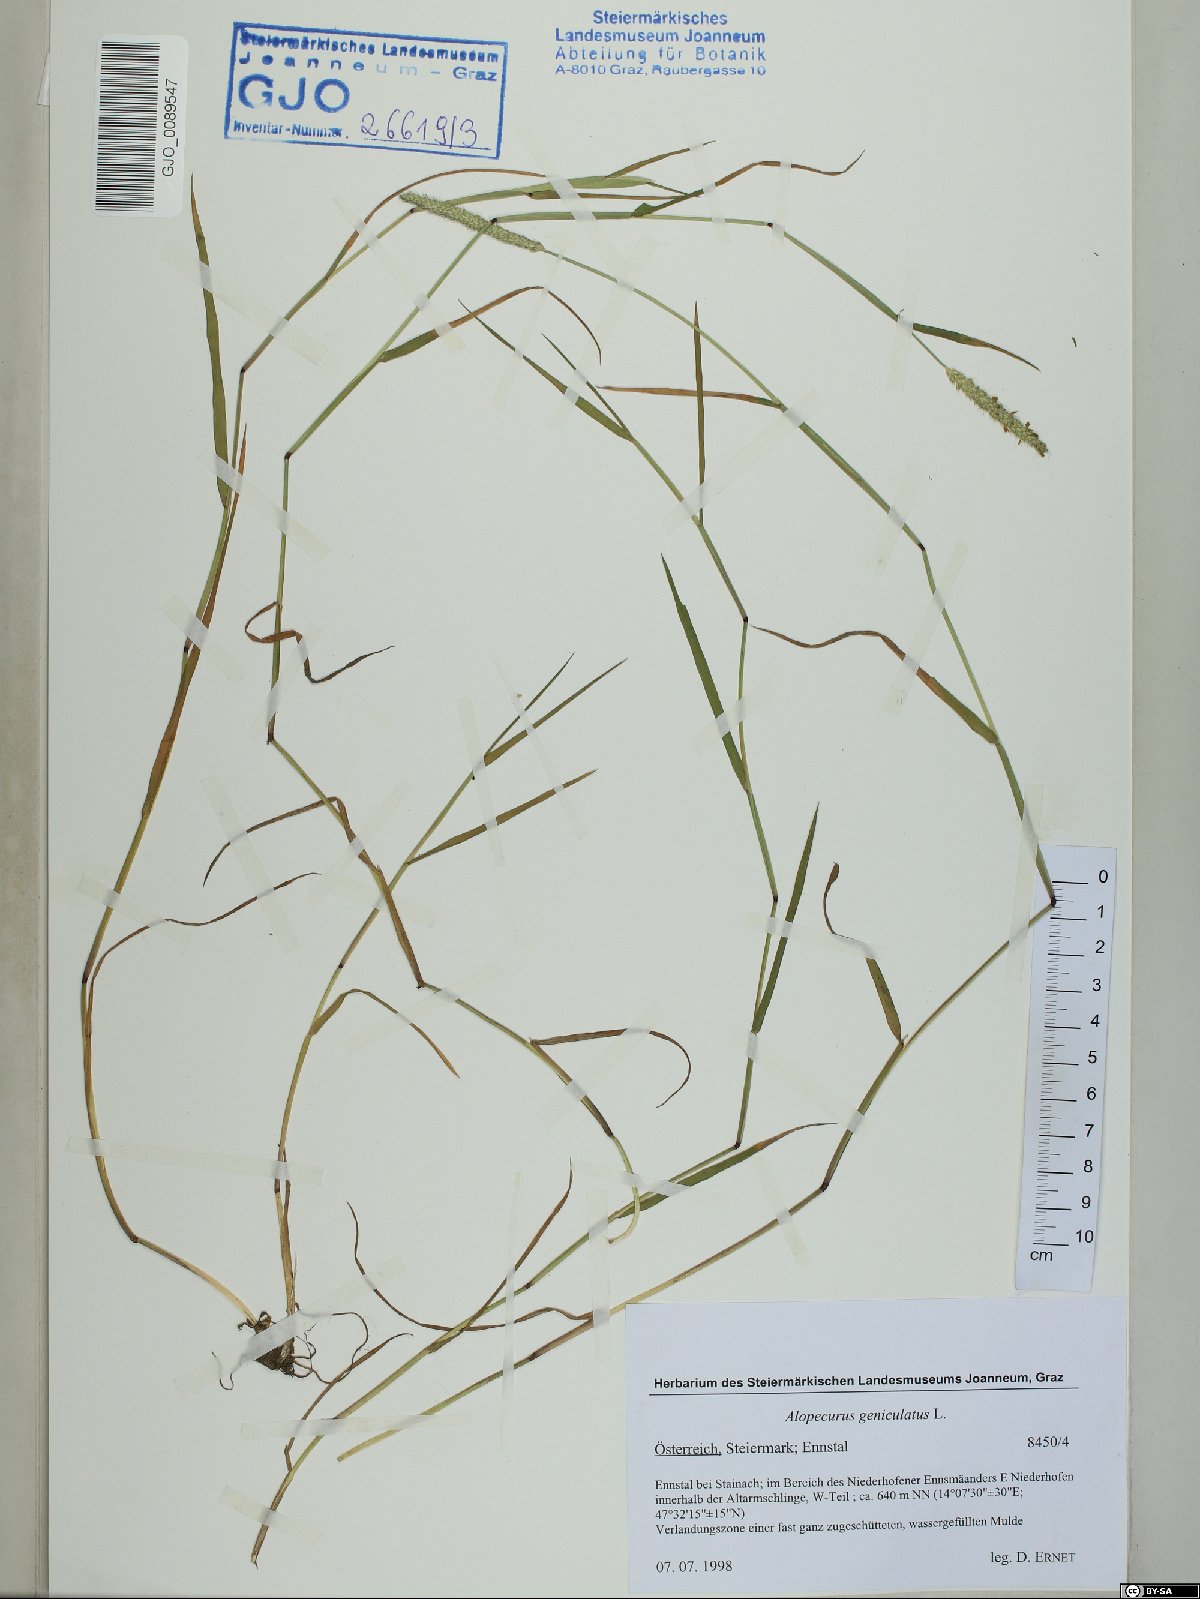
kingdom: Plantae
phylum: Tracheophyta
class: Liliopsida
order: Poales
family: Poaceae
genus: Alopecurus
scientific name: Alopecurus geniculatus
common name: Water foxtail
